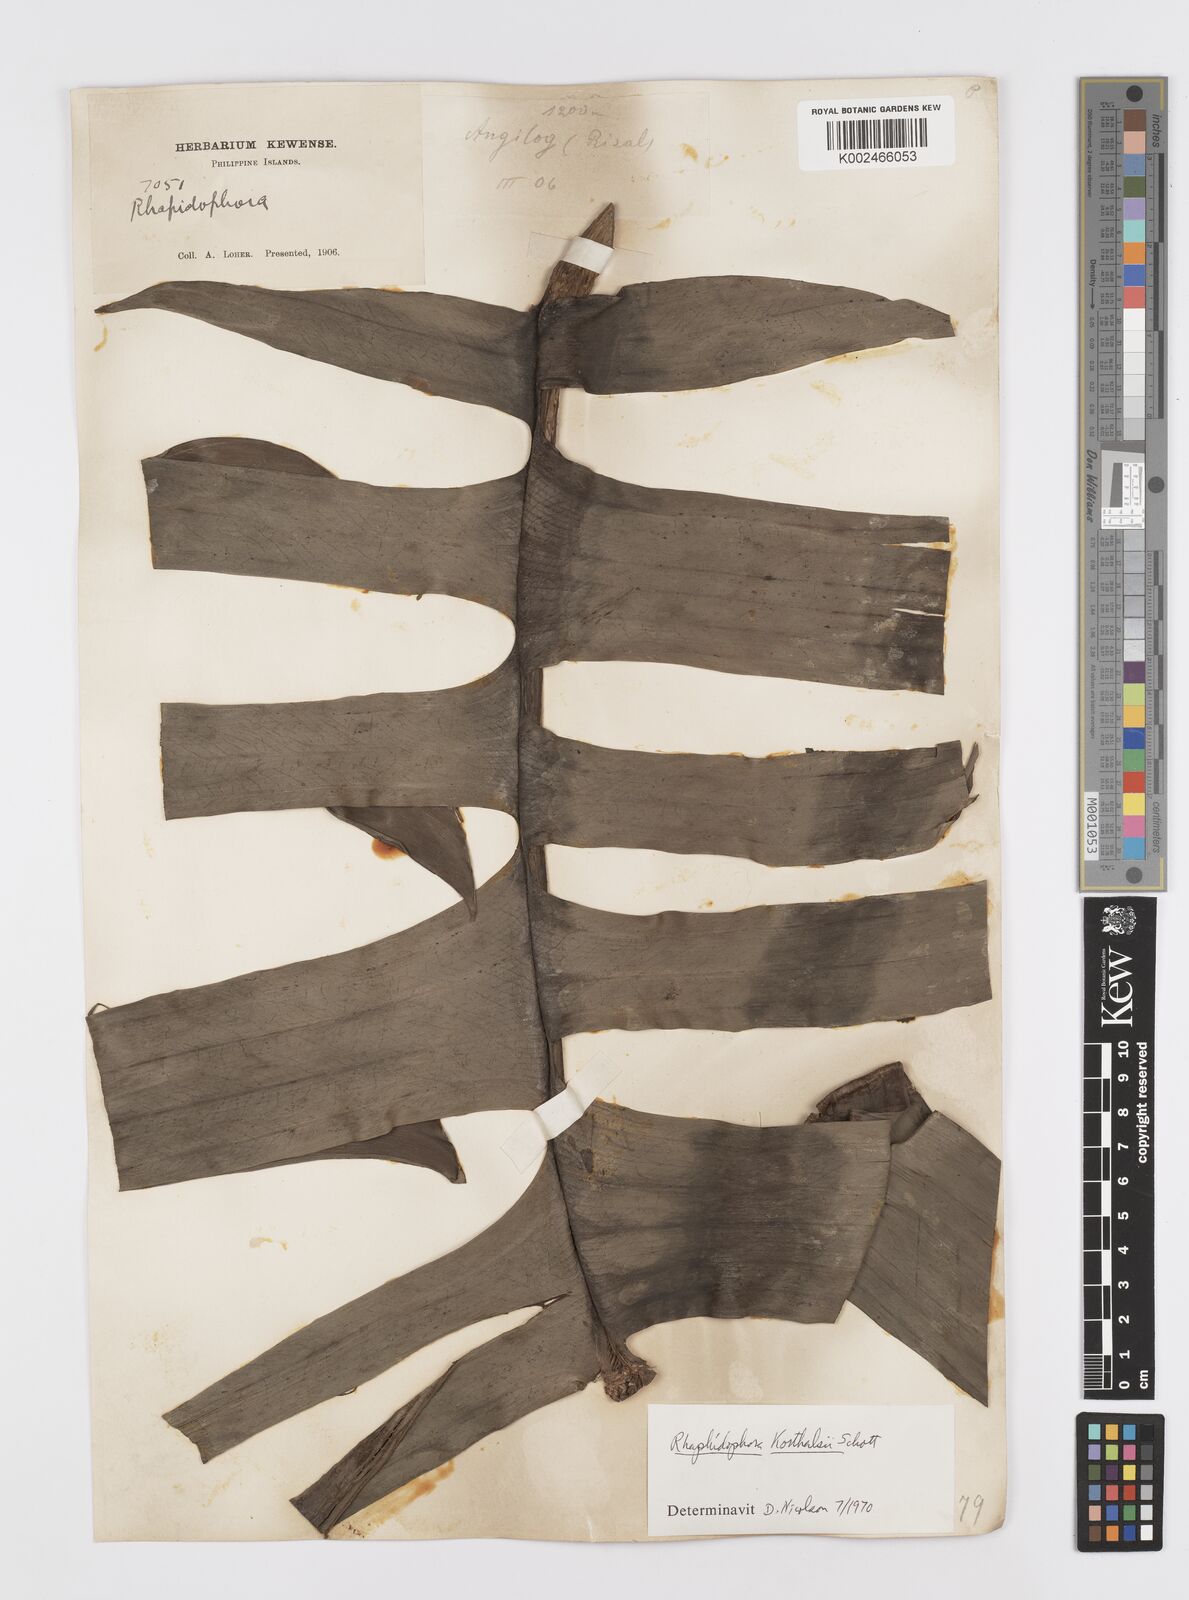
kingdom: Plantae
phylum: Tracheophyta
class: Liliopsida
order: Alismatales
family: Araceae
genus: Rhaphidophora
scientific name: Rhaphidophora korthalsii
